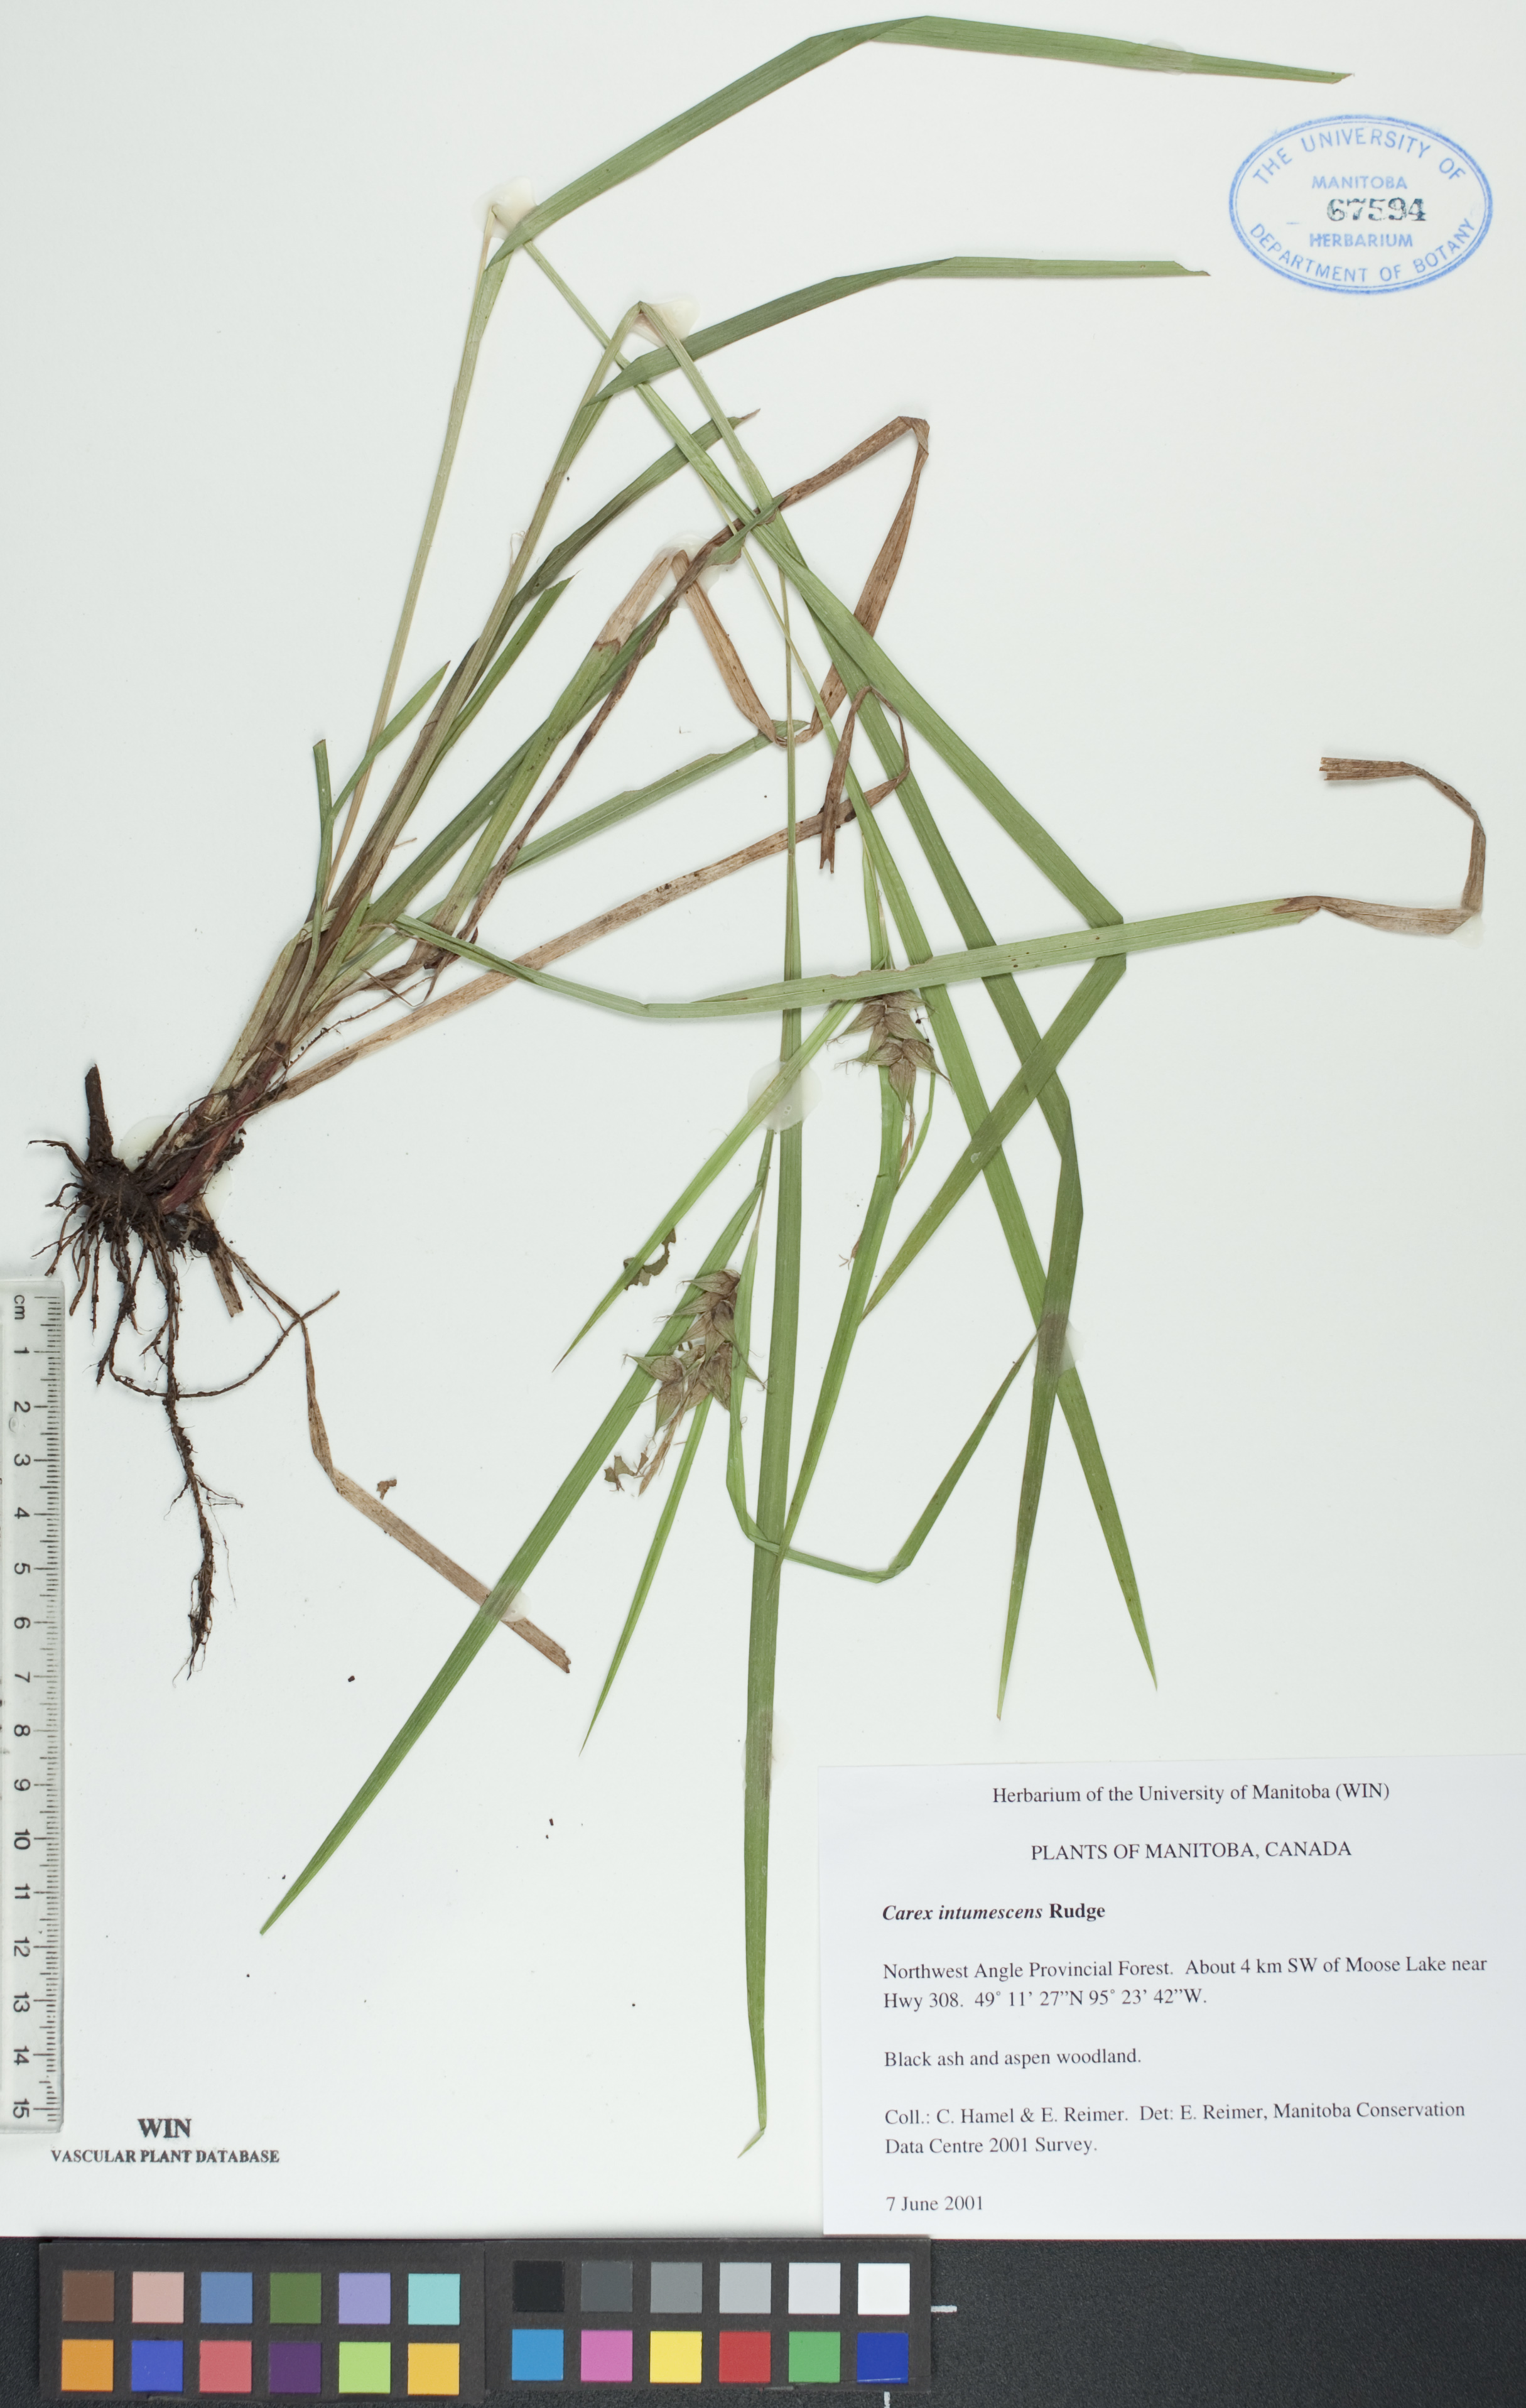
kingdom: Plantae
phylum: Tracheophyta
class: Liliopsida
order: Poales
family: Cyperaceae
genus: Carex
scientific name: Carex intumescens
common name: Greater bladder sedge
